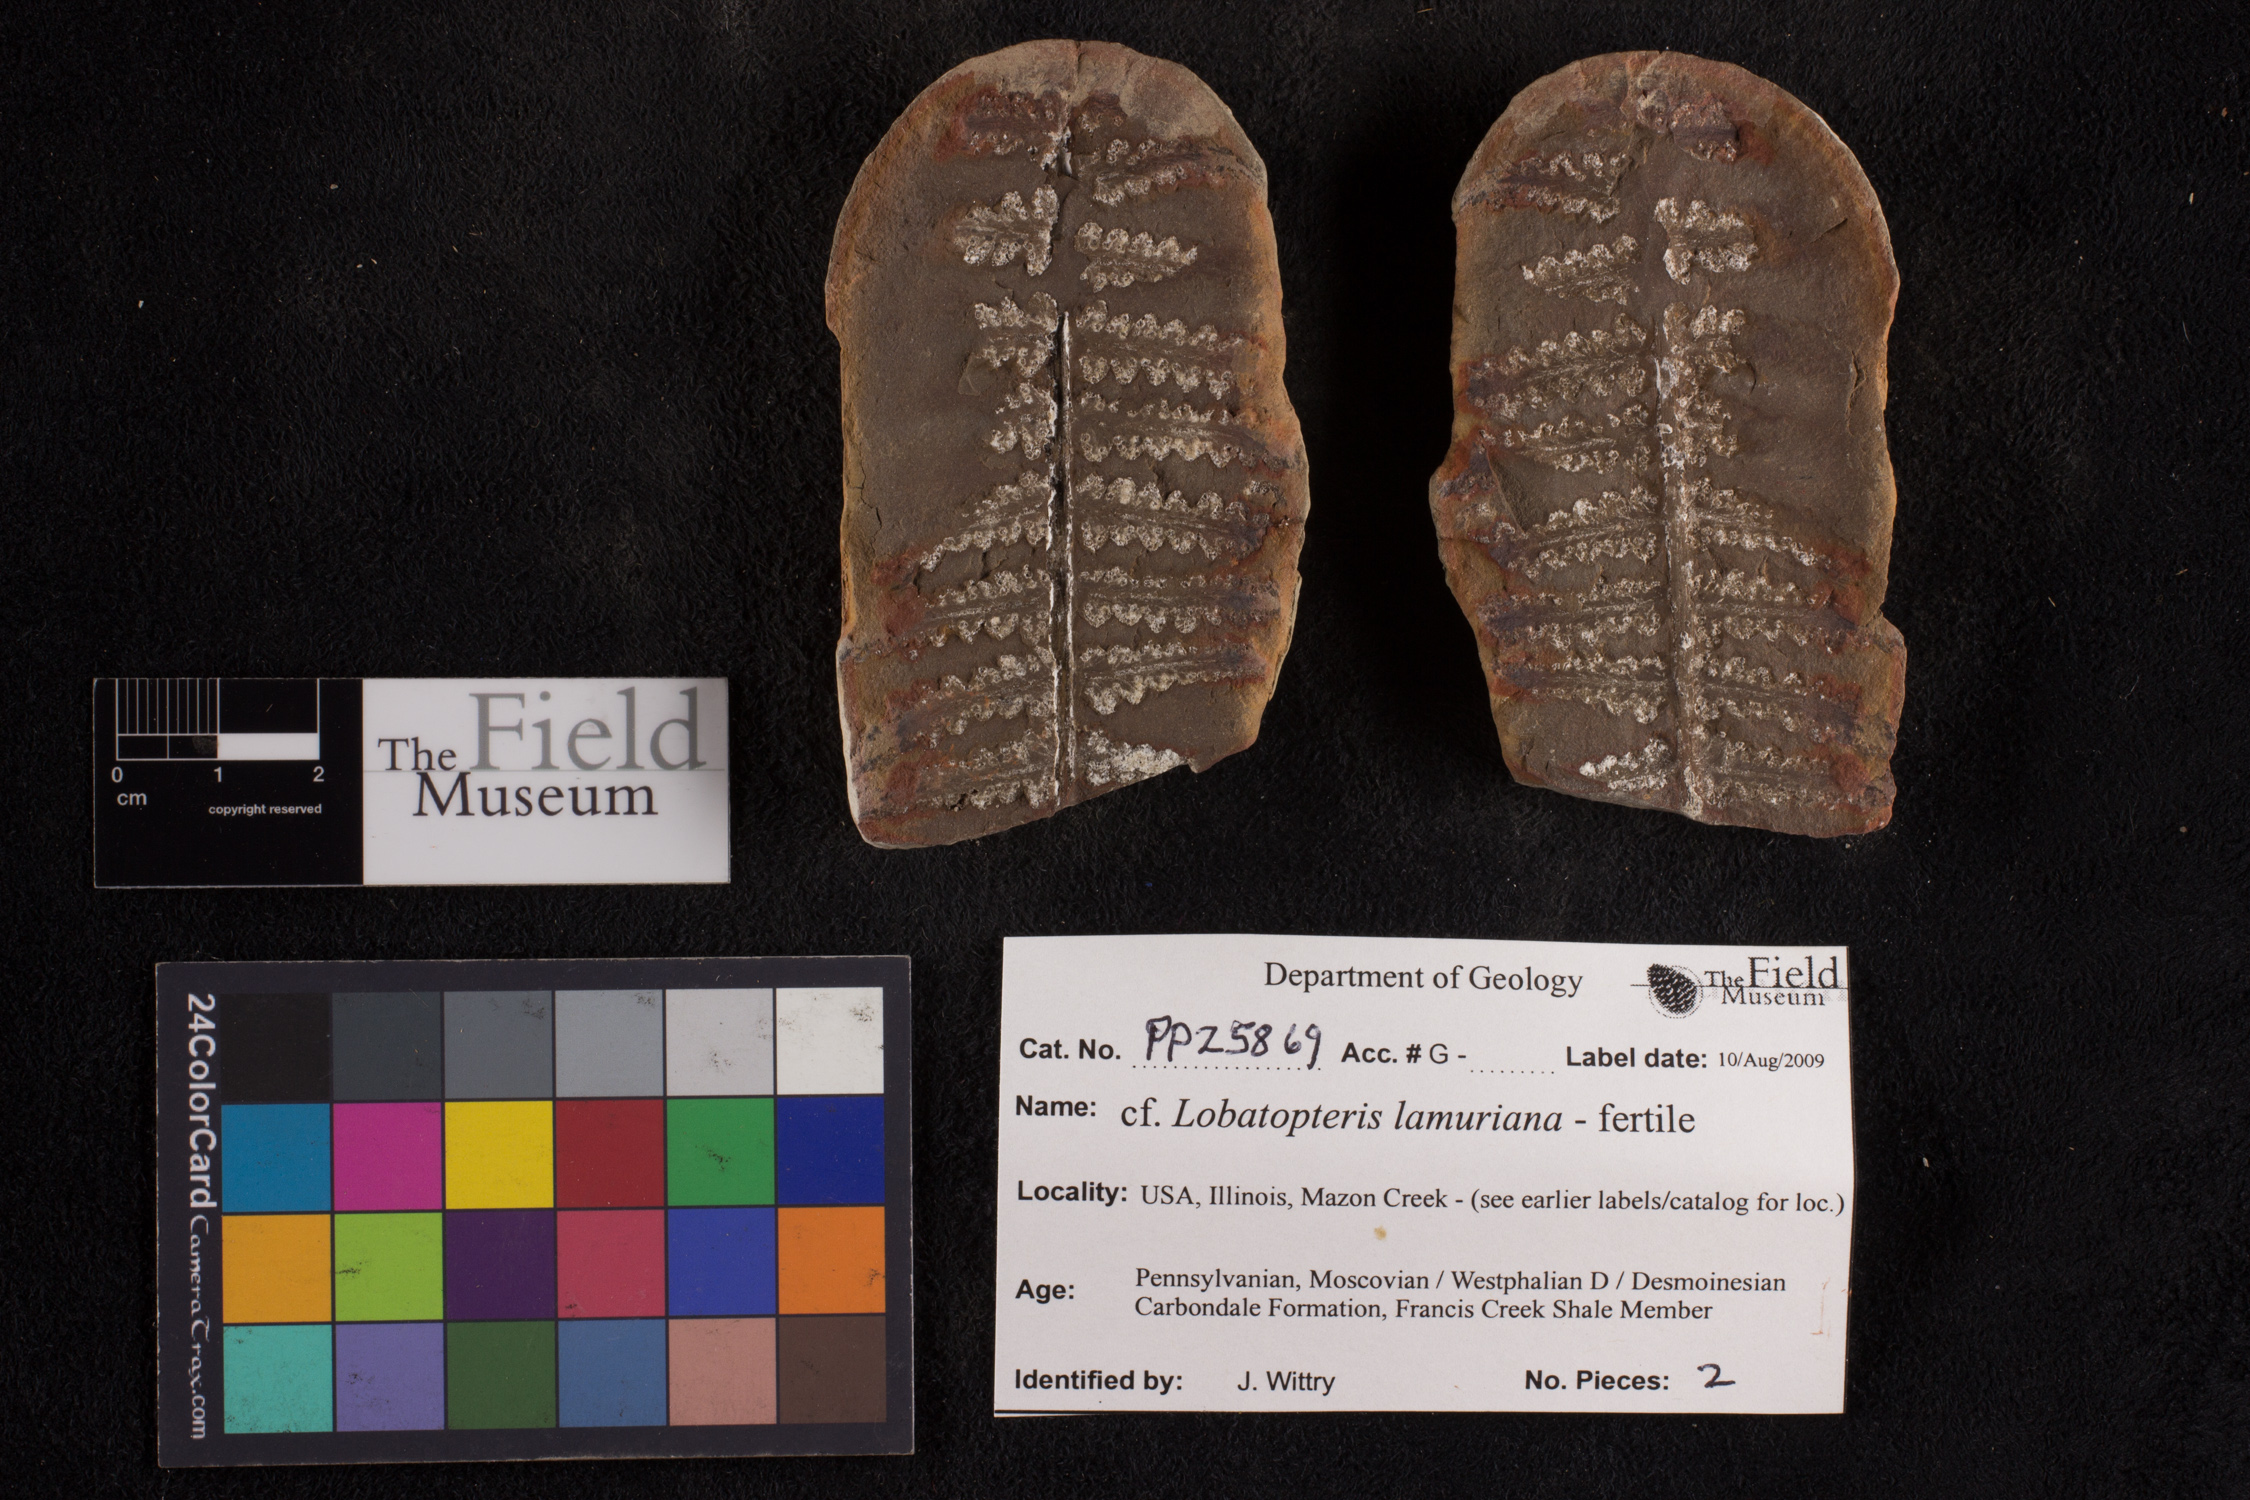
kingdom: Plantae
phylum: Tracheophyta
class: Polypodiopsida
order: Marattiales
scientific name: Marattiales
